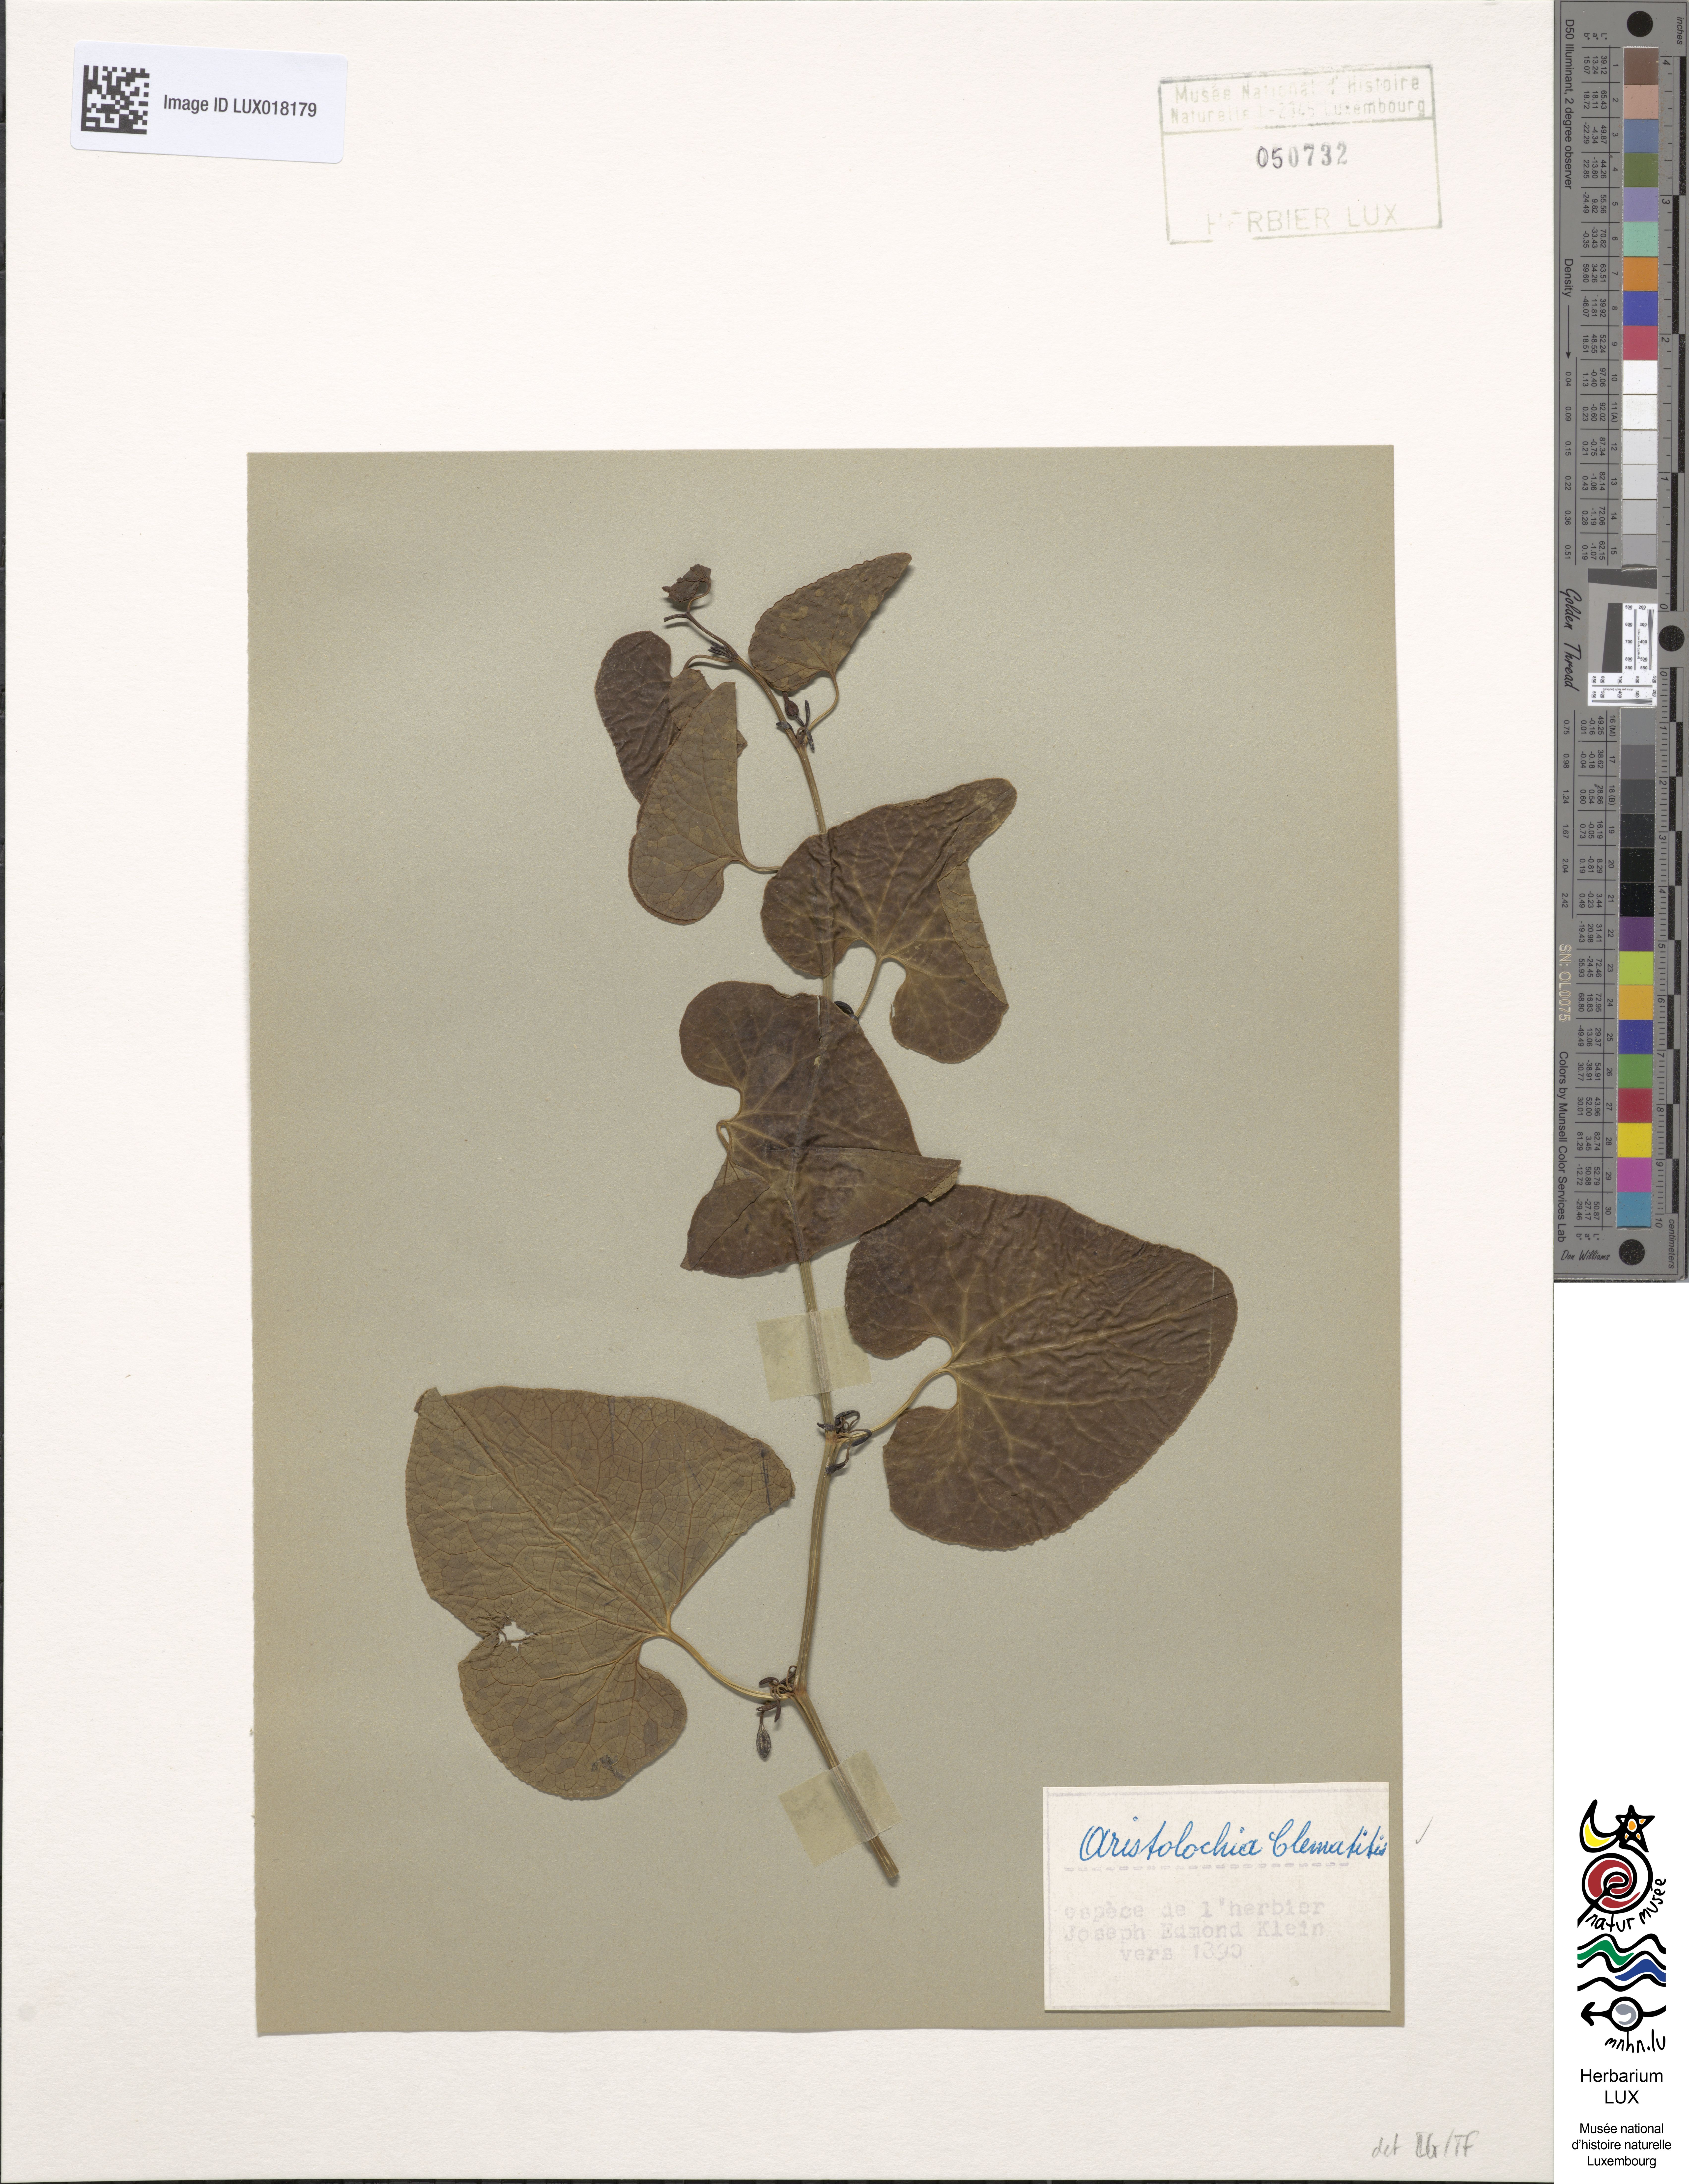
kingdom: Plantae
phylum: Tracheophyta
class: Magnoliopsida
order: Piperales
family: Aristolochiaceae
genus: Aristolochia
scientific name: Aristolochia clematitis
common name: Birthwort
